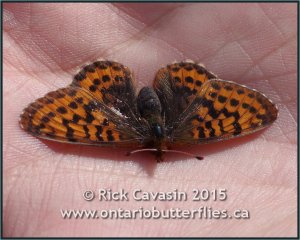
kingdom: Animalia
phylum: Arthropoda
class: Insecta
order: Lepidoptera
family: Nymphalidae
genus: Boloria
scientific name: Boloria frigga
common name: Frigga Fritillary
